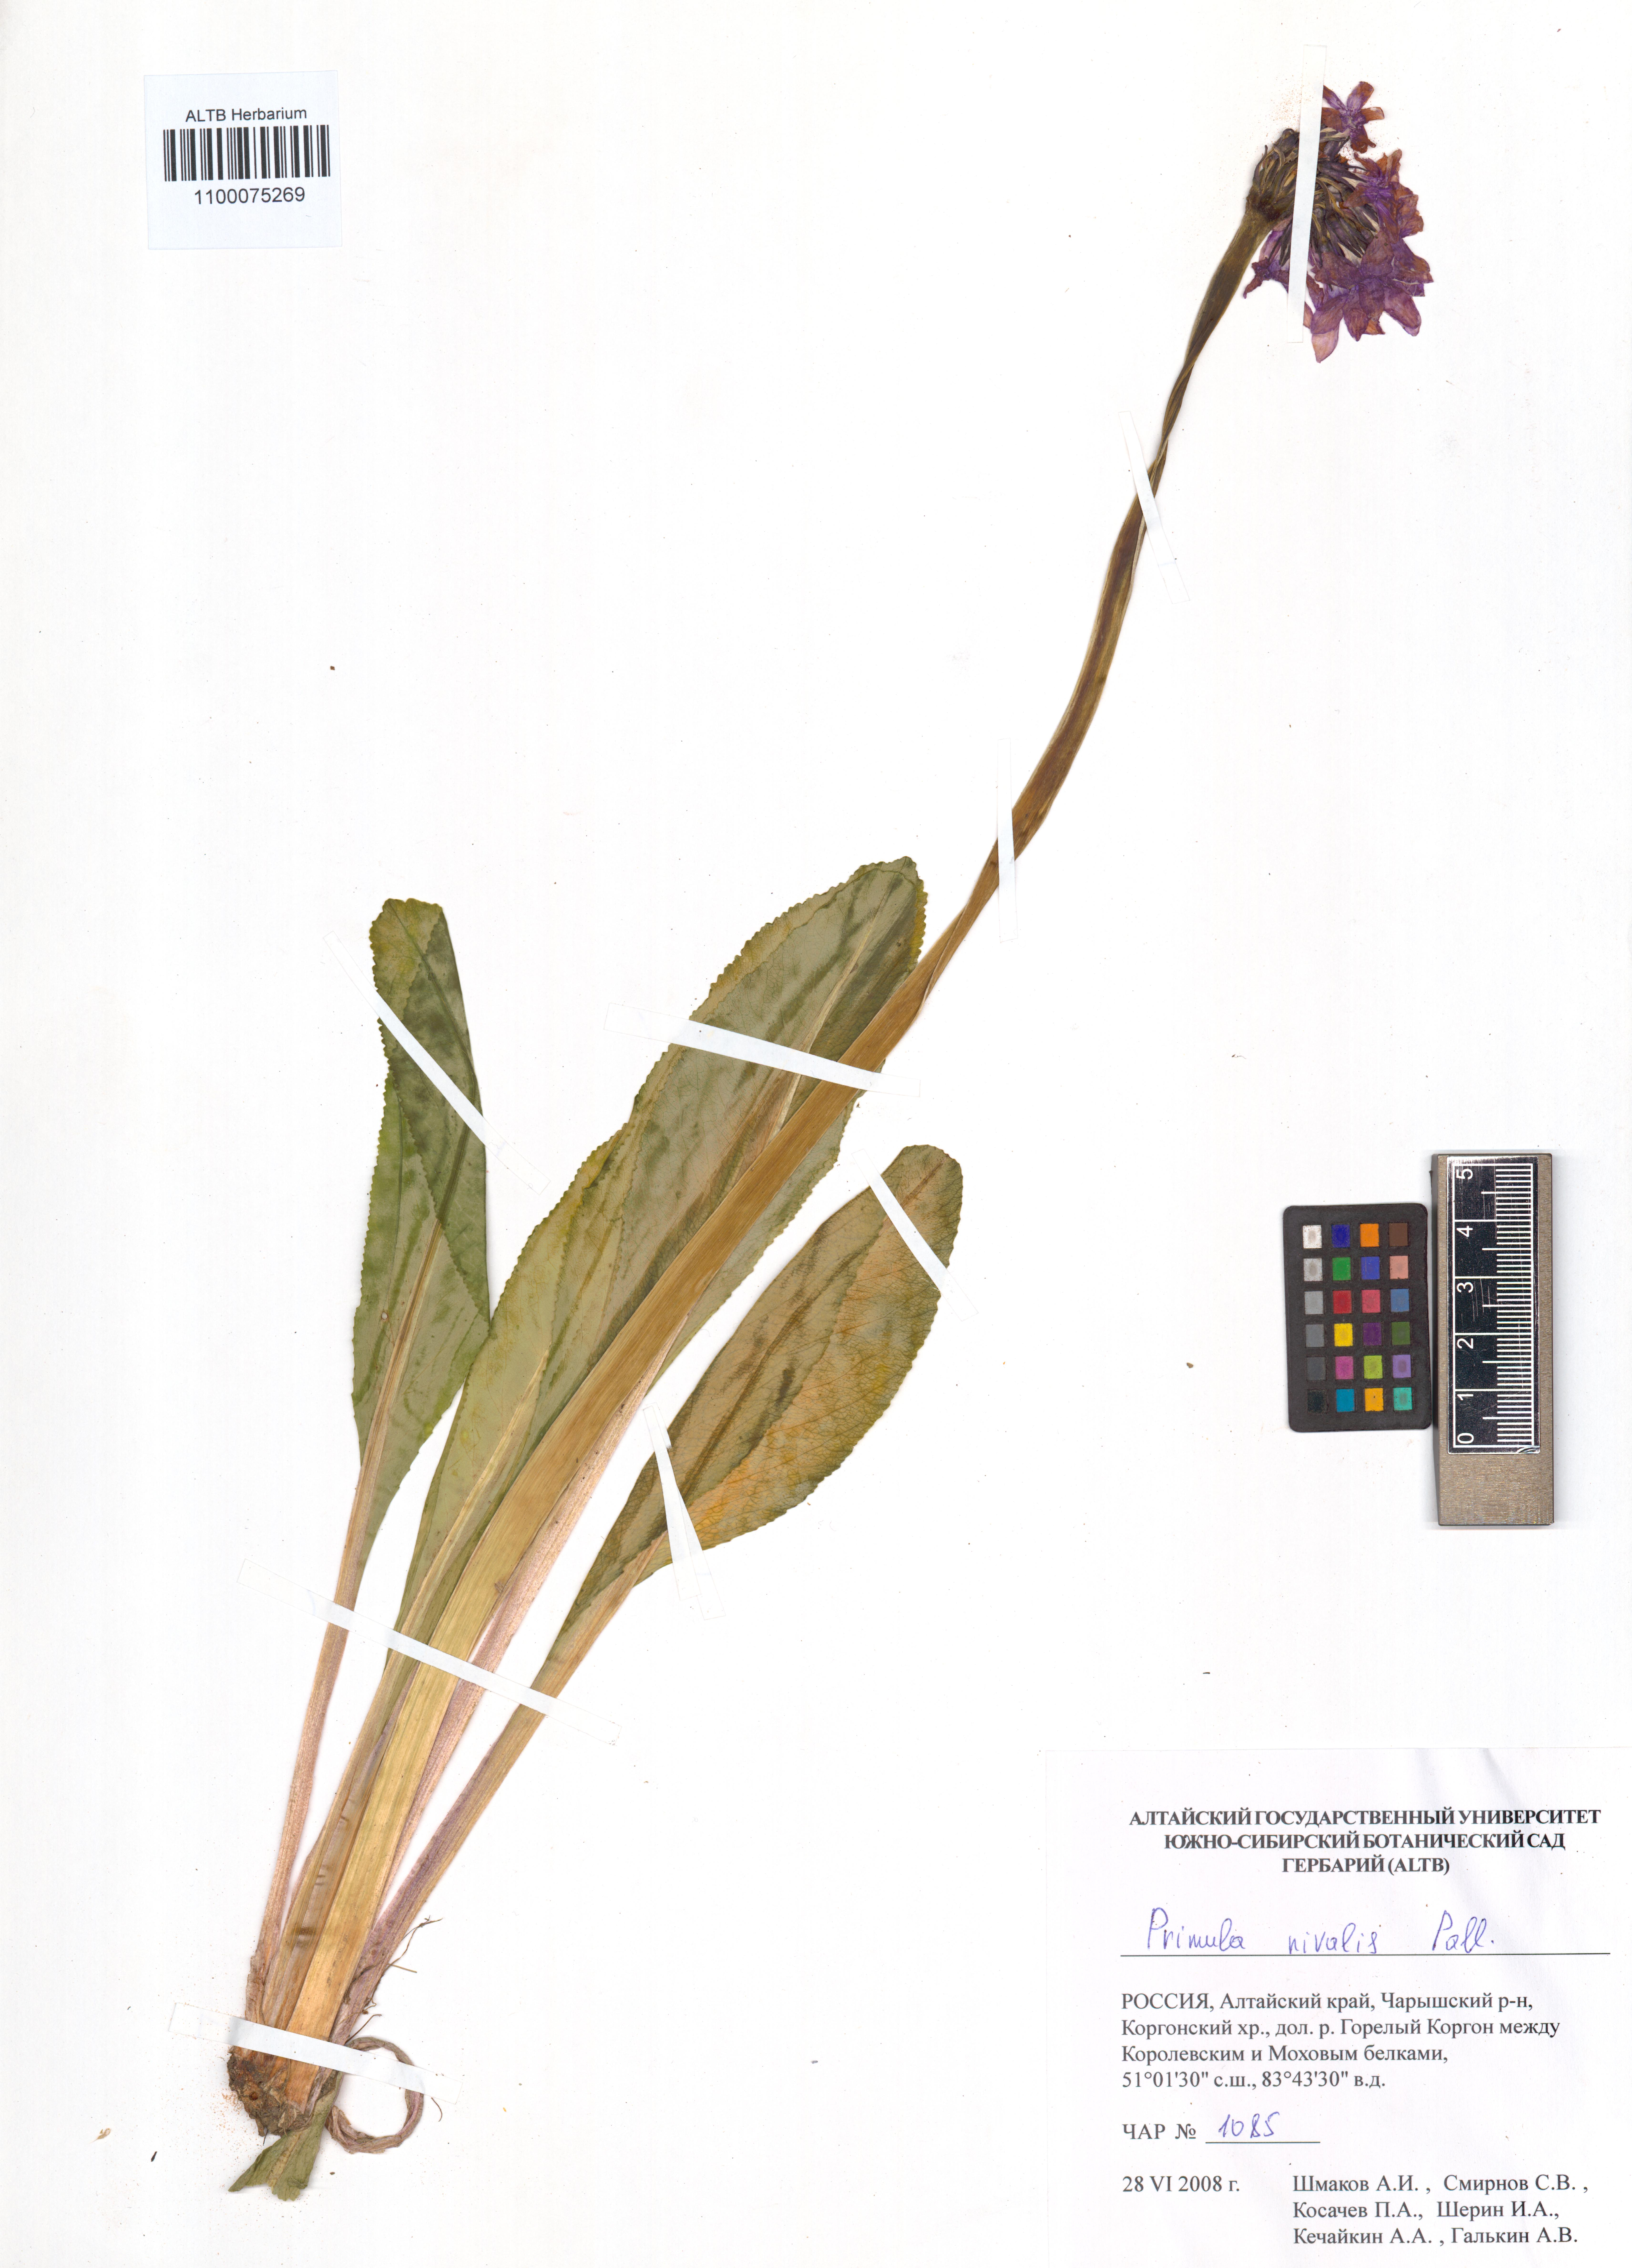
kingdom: Plantae
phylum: Tracheophyta
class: Magnoliopsida
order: Ericales
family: Primulaceae
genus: Primula
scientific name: Primula nivalis
